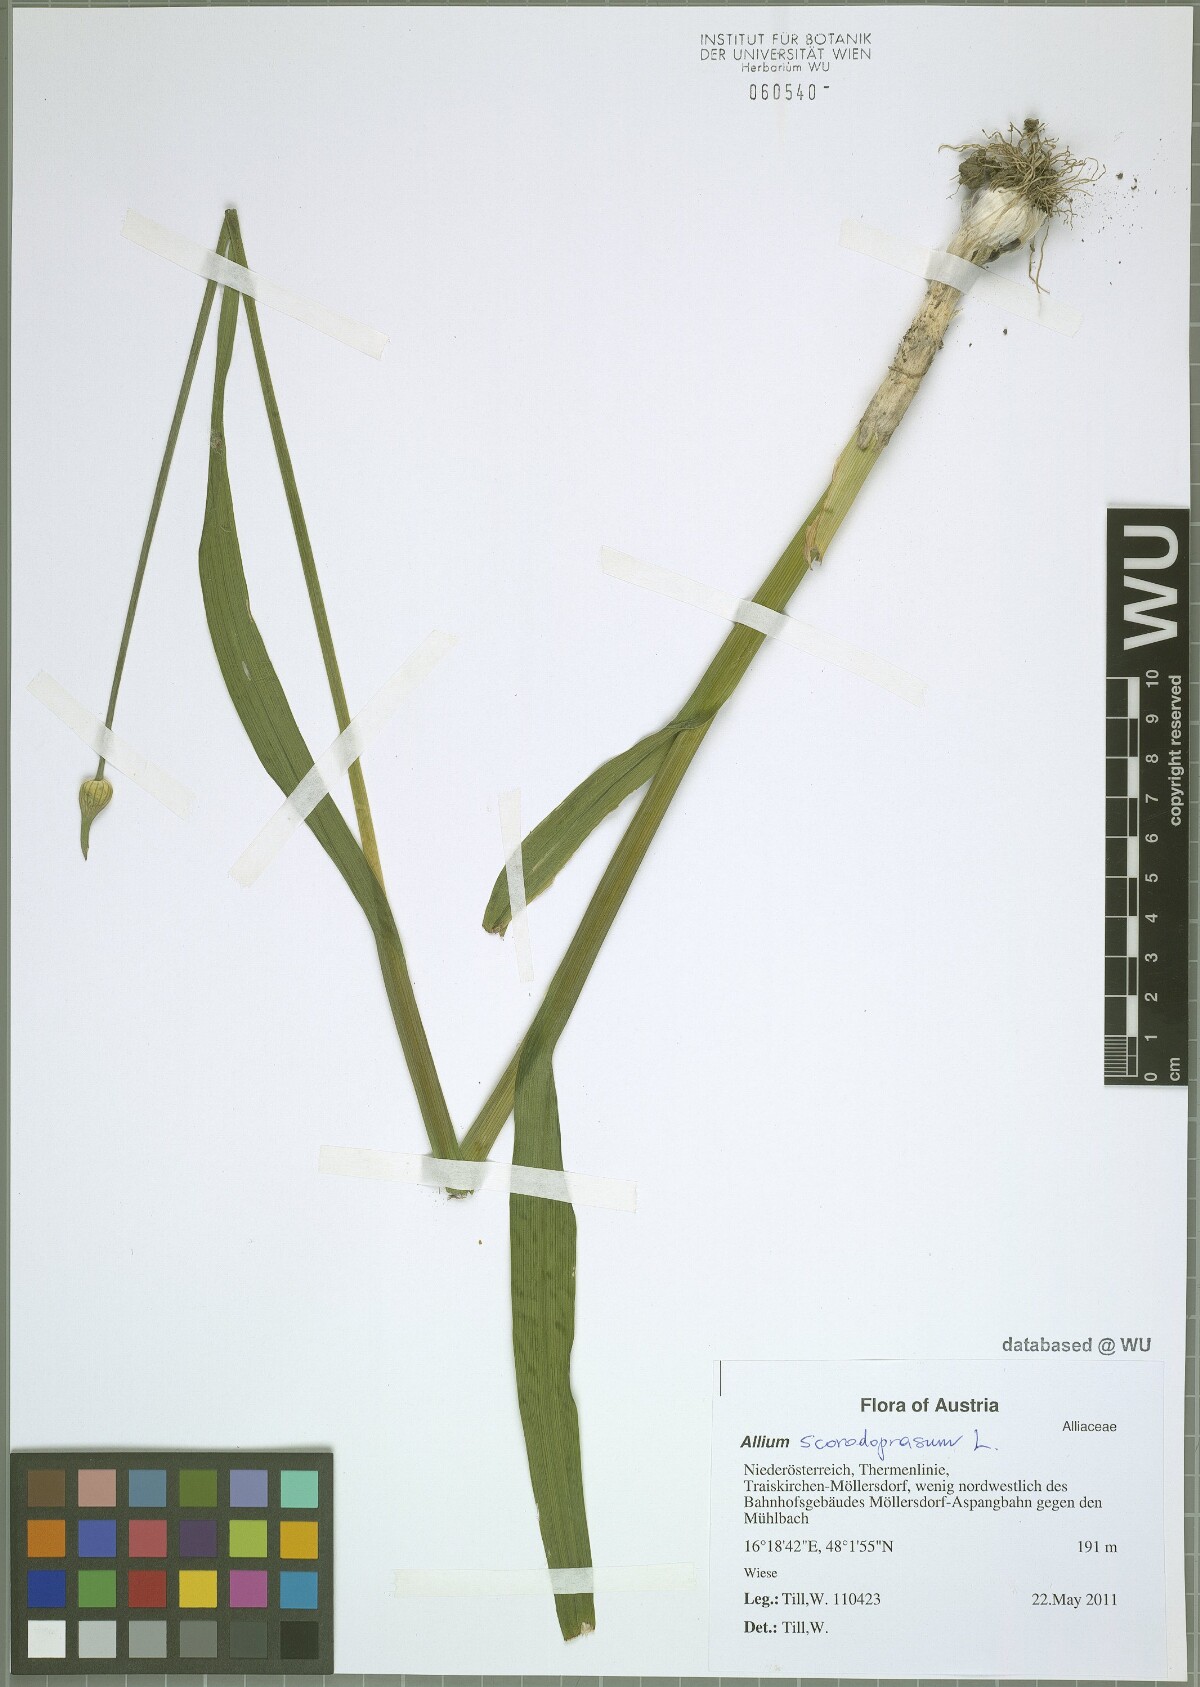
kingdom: Plantae
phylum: Tracheophyta
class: Liliopsida
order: Asparagales
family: Amaryllidaceae
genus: Allium
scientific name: Allium scorodoprasum
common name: Sand leek
